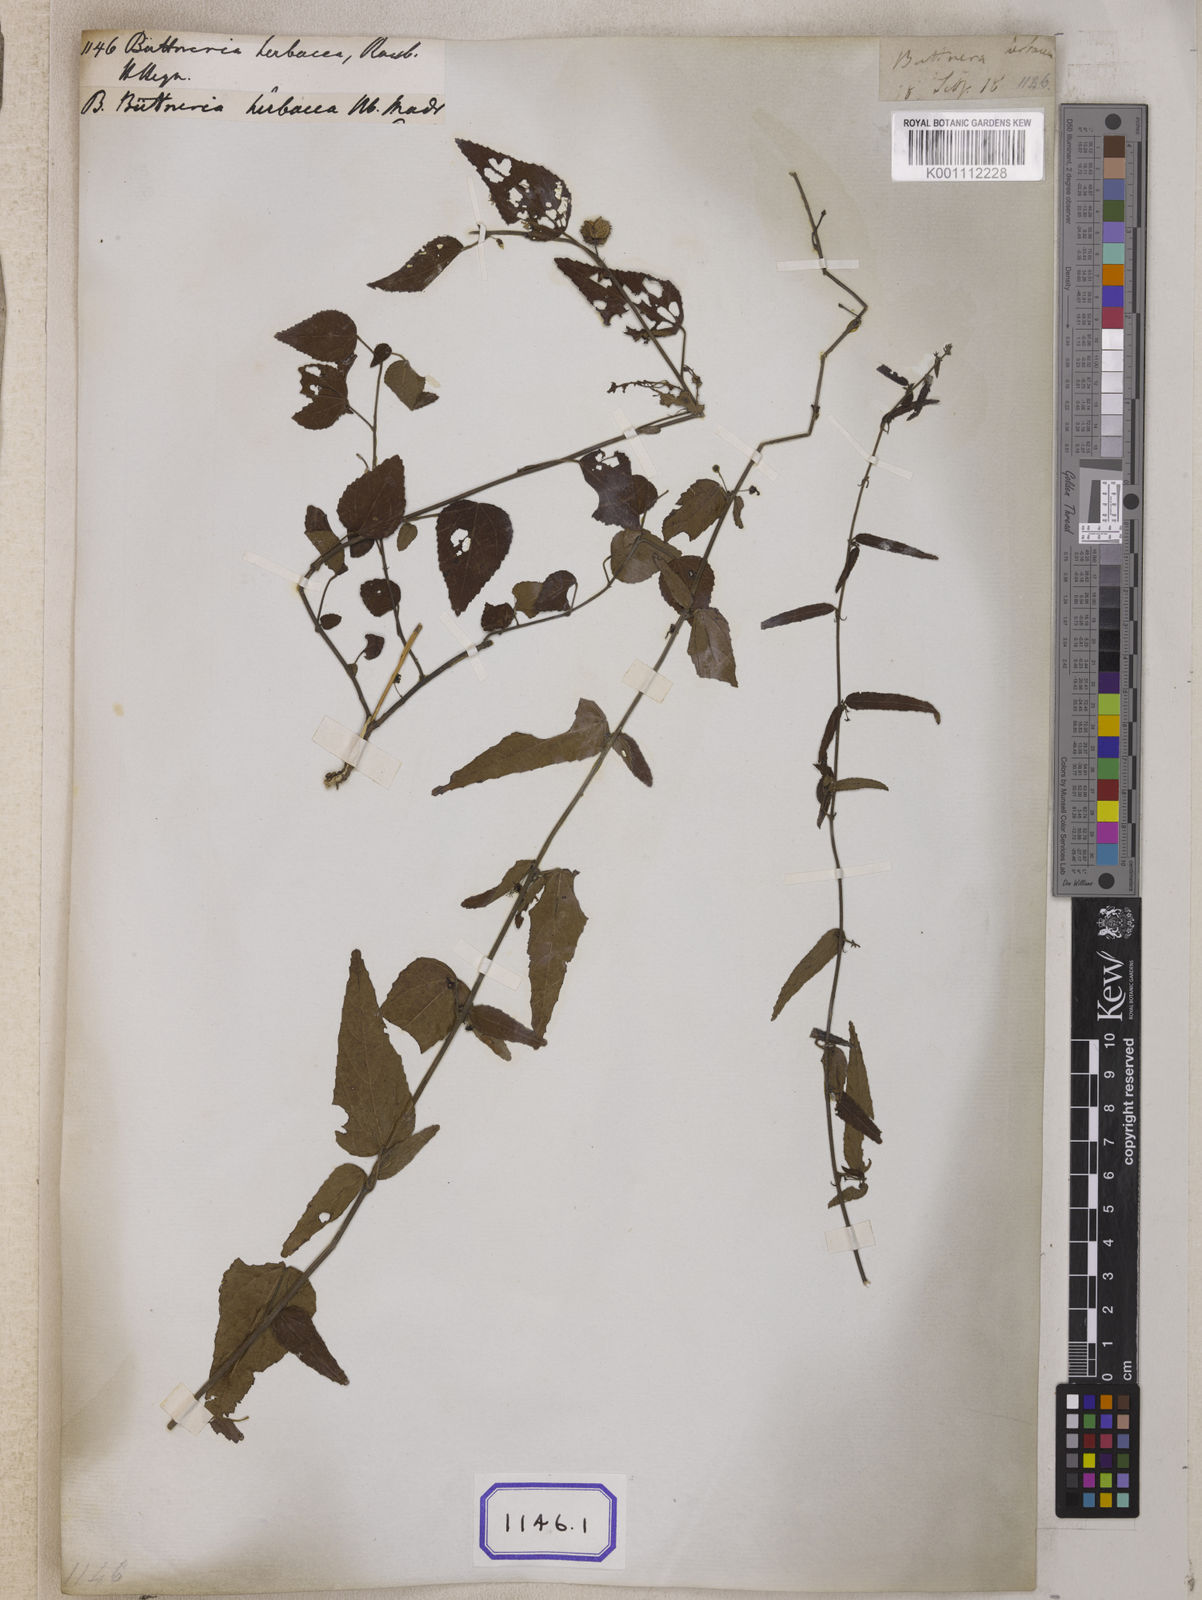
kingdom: Plantae
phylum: Tracheophyta
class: Magnoliopsida
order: Malvales
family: Malvaceae
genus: Byttneria
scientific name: Byttneria herbacea
